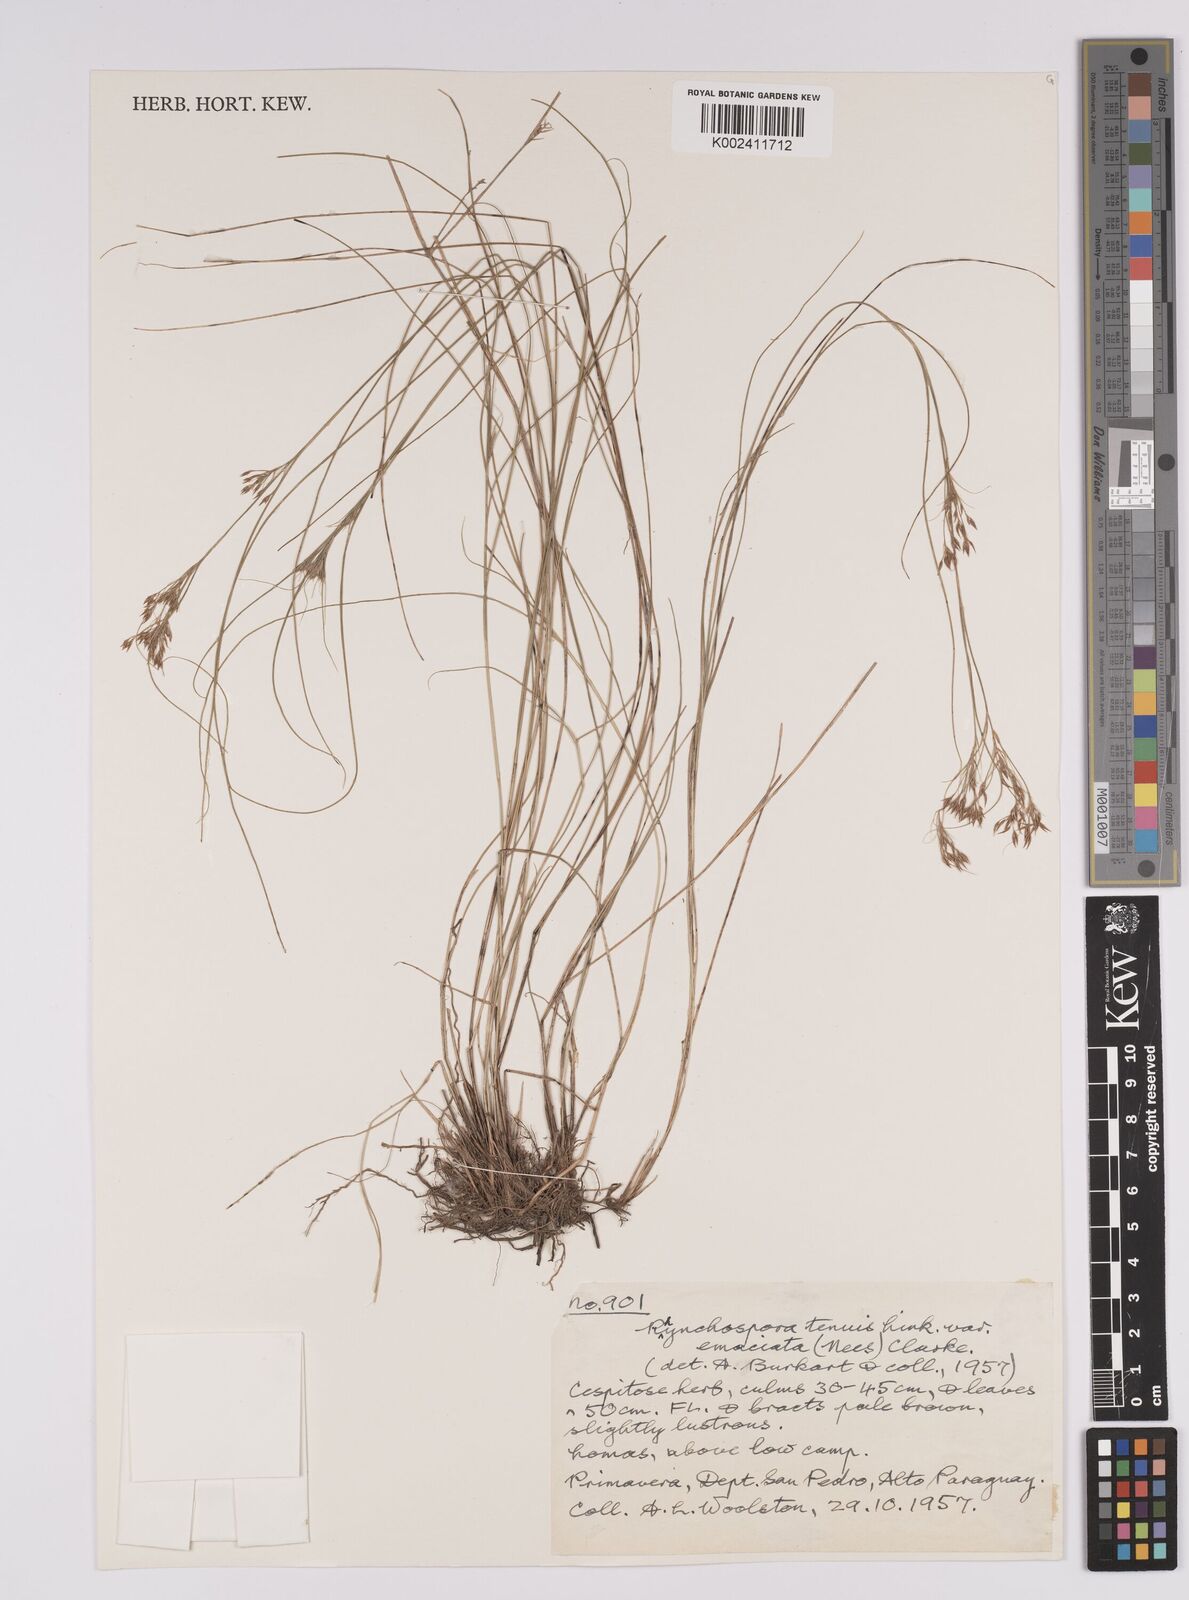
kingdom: Plantae
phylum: Tracheophyta
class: Liliopsida
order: Poales
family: Cyperaceae
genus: Rhynchospora
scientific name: Rhynchospora tenuis
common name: Quill beaksedge
